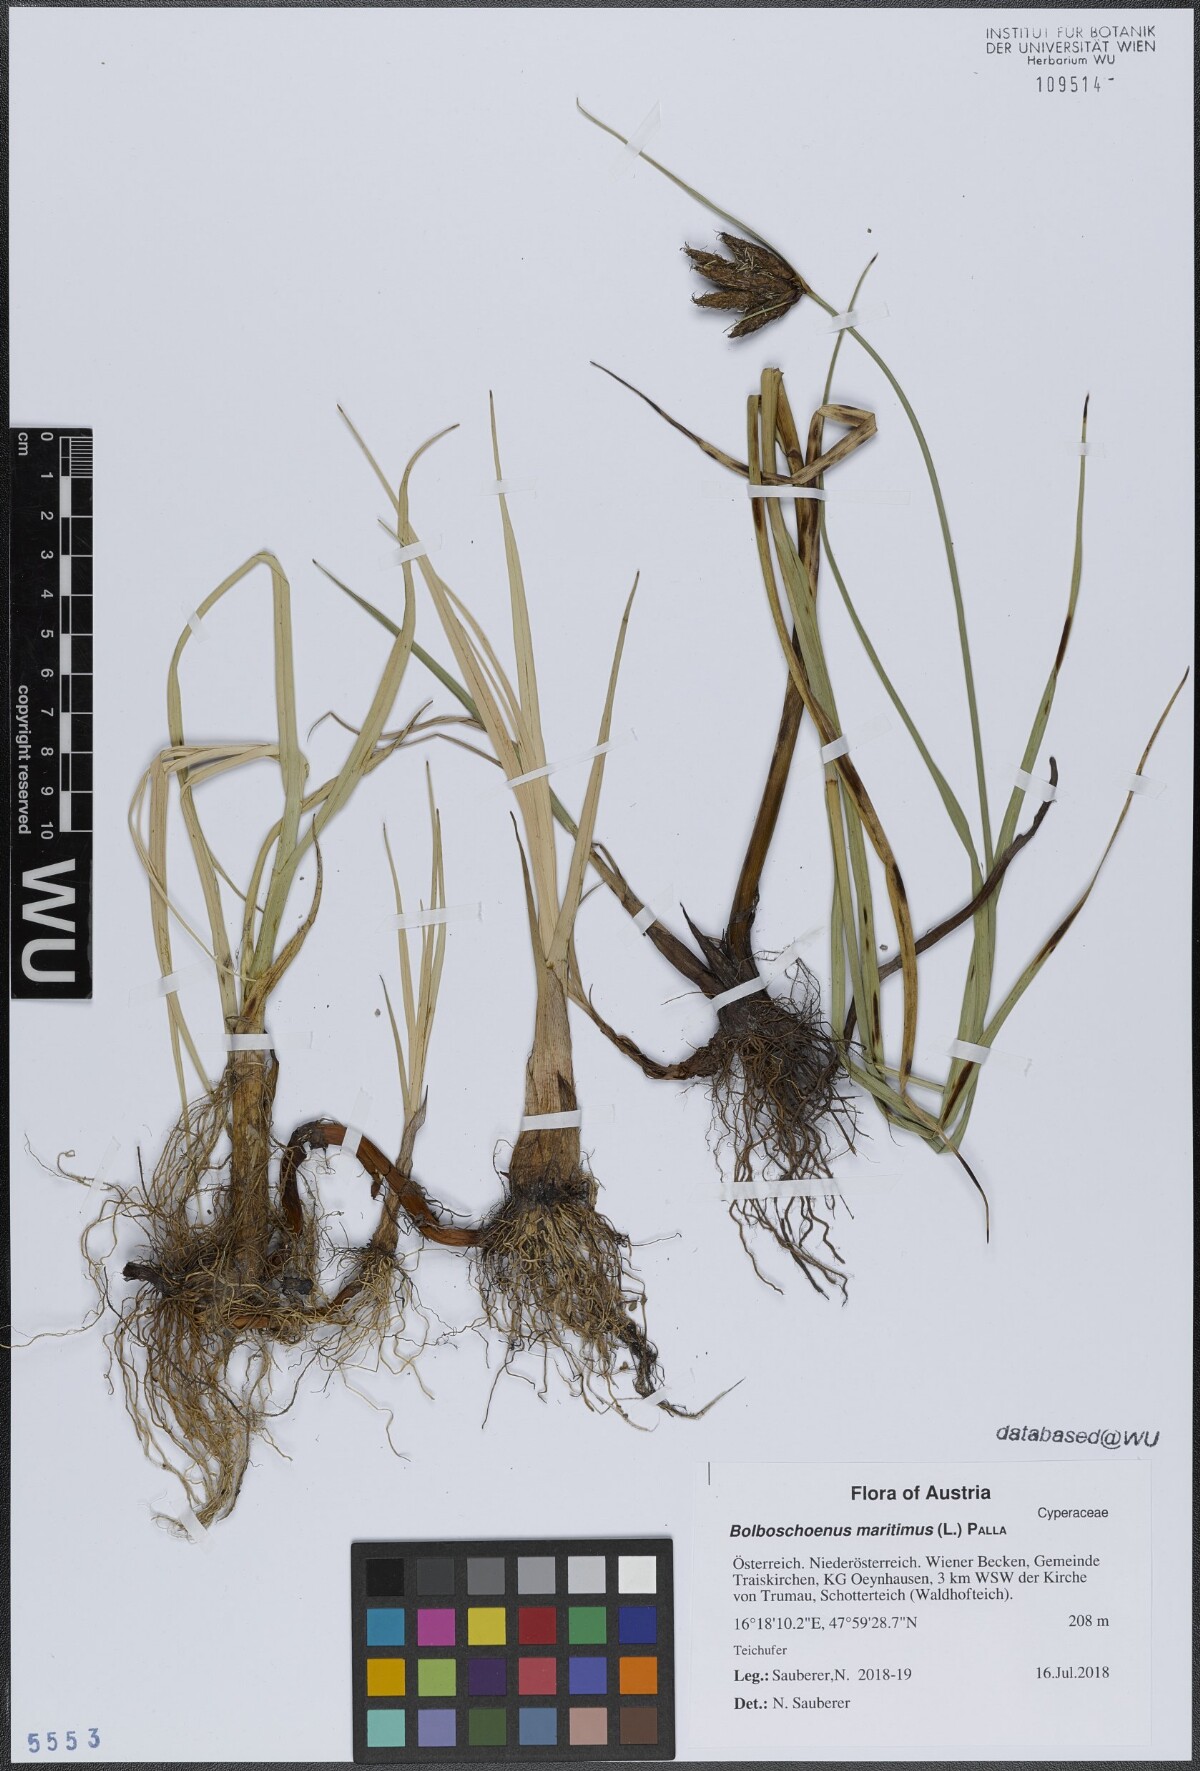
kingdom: Plantae
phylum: Tracheophyta
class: Liliopsida
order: Poales
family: Cyperaceae
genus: Bolboschoenus
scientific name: Bolboschoenus maritimus
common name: Sea club-rush
